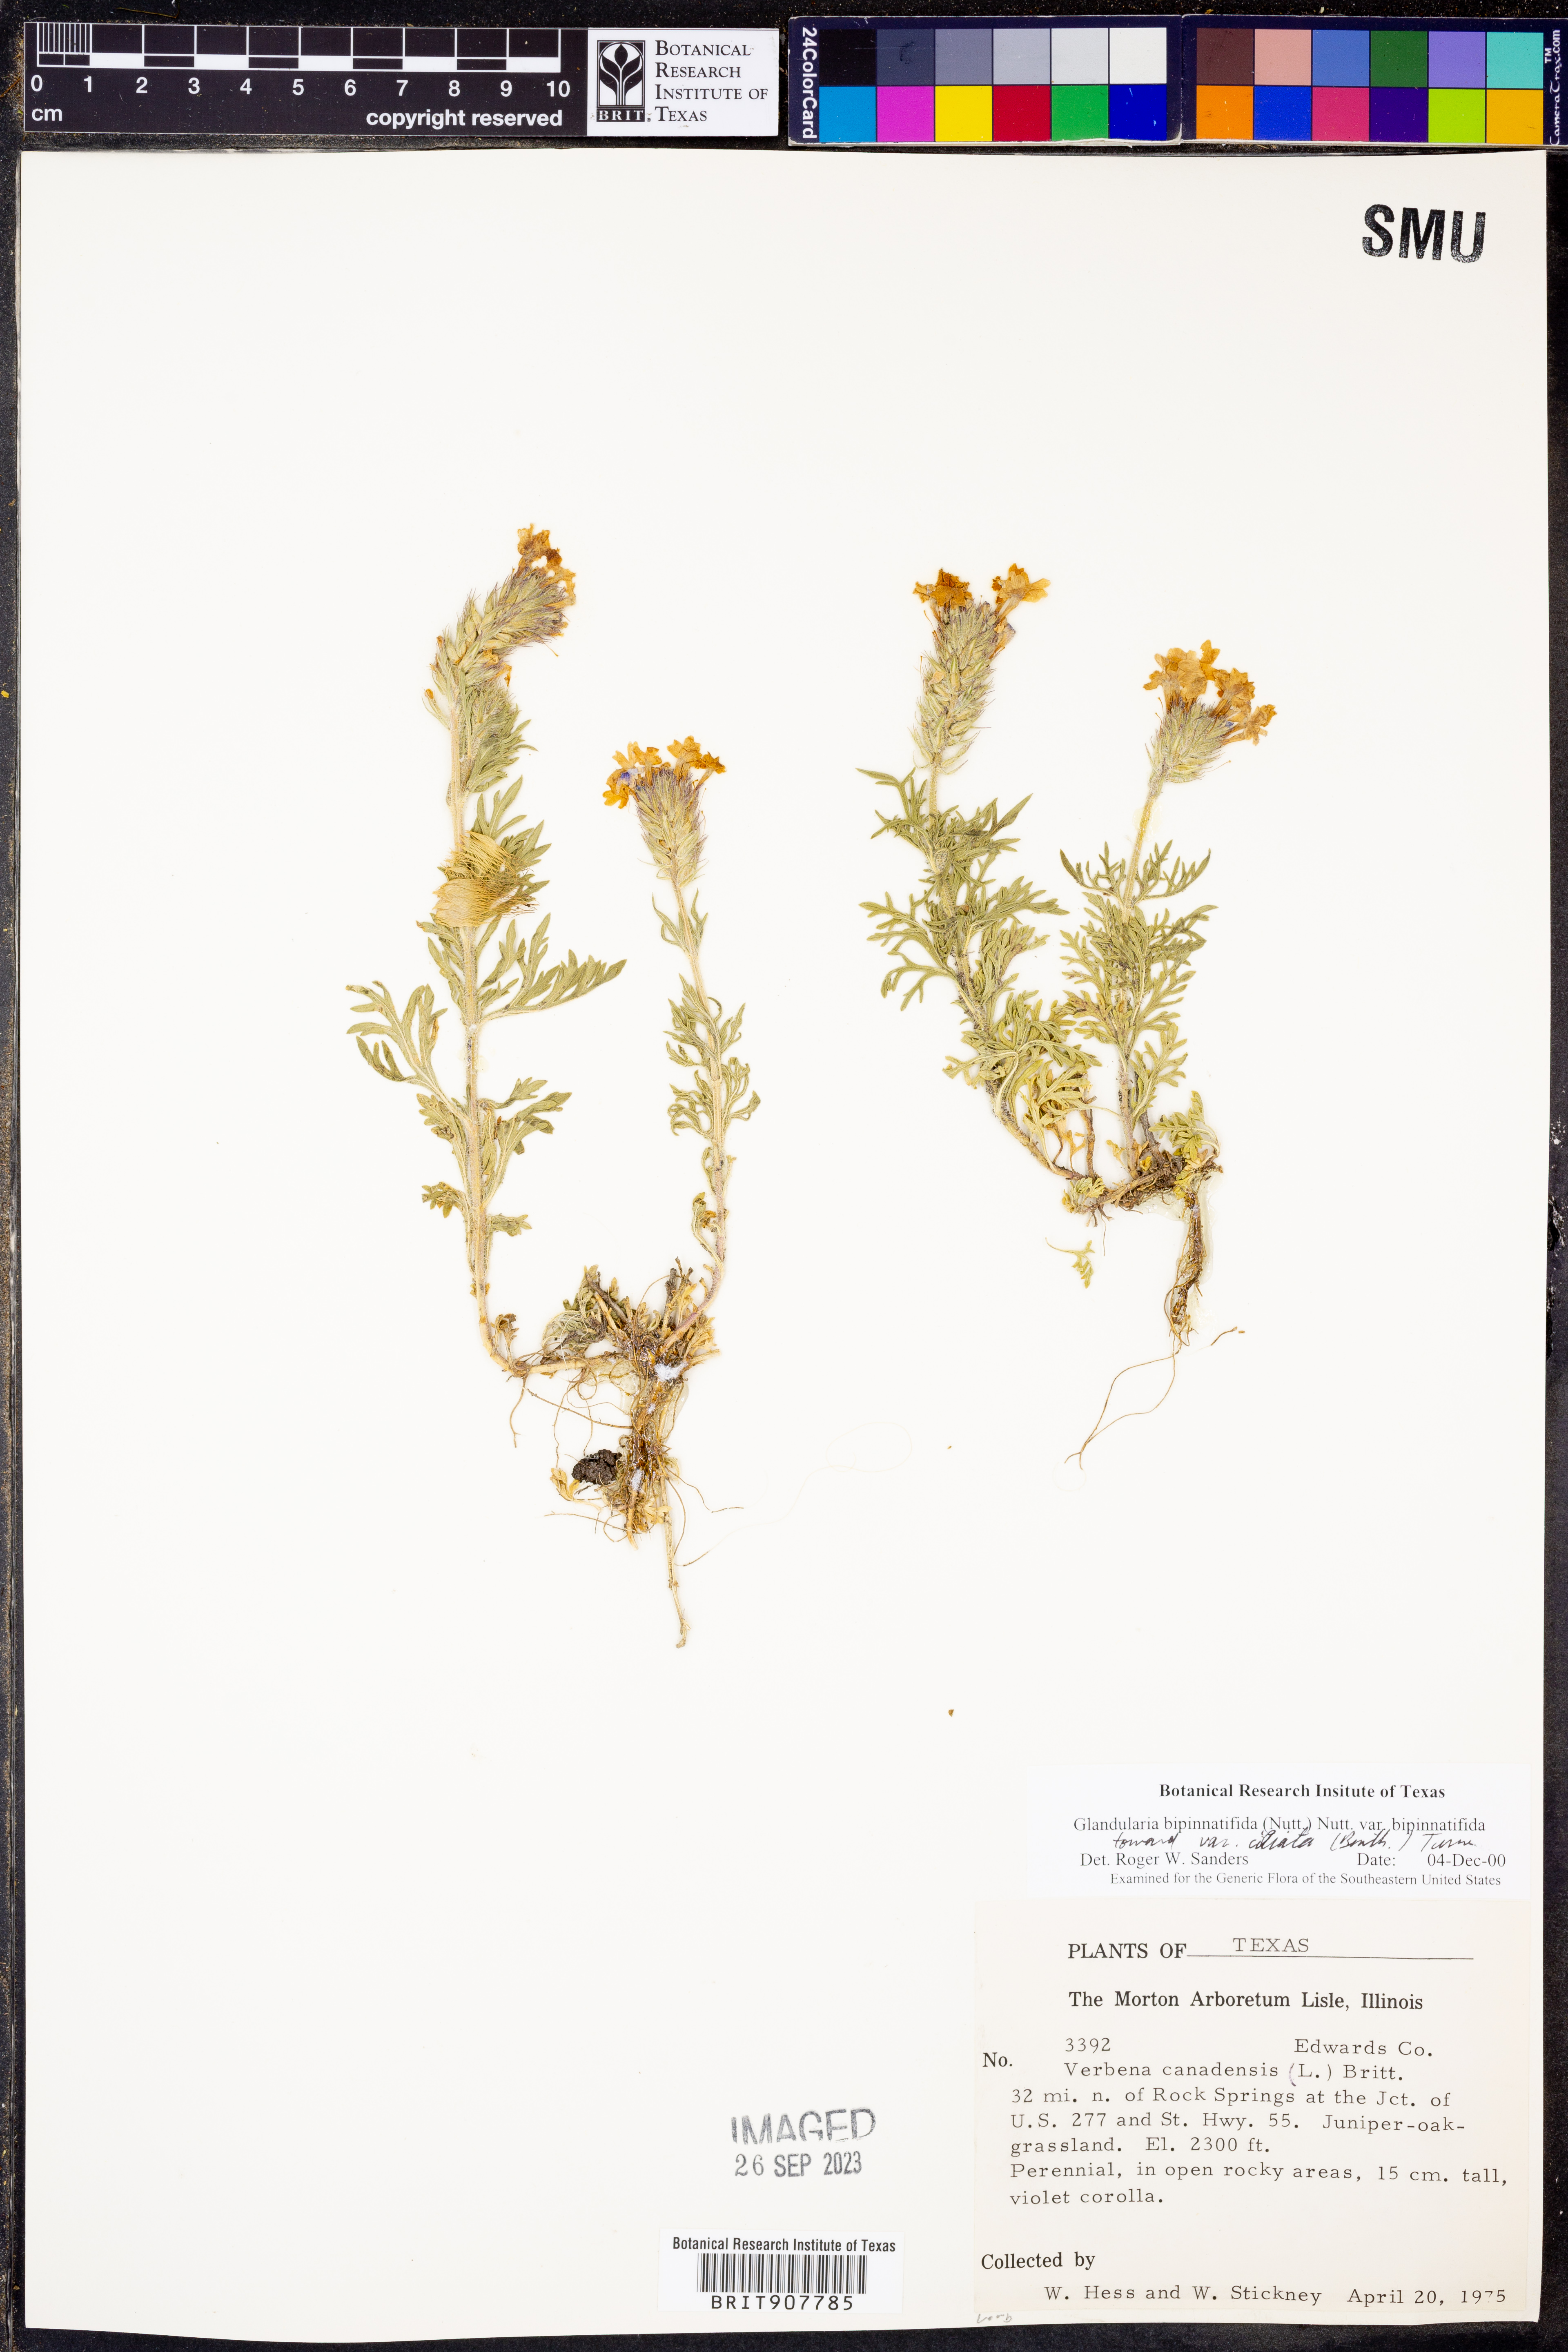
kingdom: Plantae
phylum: Tracheophyta
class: Magnoliopsida
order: Lamiales
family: Verbenaceae
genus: Verbena
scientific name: Verbena bipinnatifida
